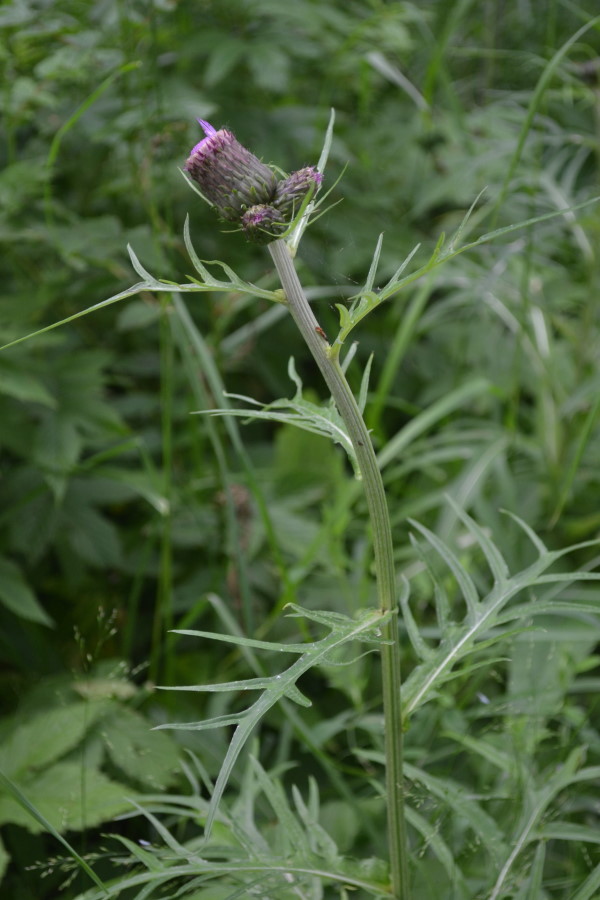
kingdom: Plantae
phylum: Tracheophyta
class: Magnoliopsida
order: Asterales
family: Asteraceae
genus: Cirsium
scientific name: Cirsium heterophyllum
